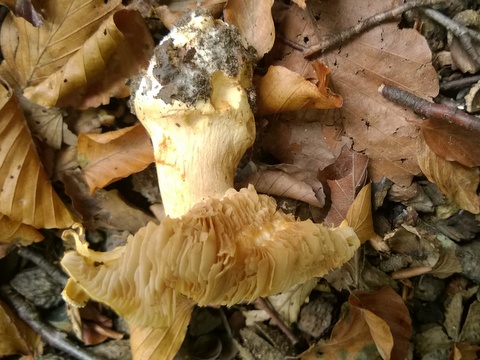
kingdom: Fungi
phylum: Basidiomycota
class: Agaricomycetes
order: Agaricales
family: Cortinariaceae
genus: Phlegmacium
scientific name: Phlegmacium caesiocortinatum
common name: rundsporet slørhat
